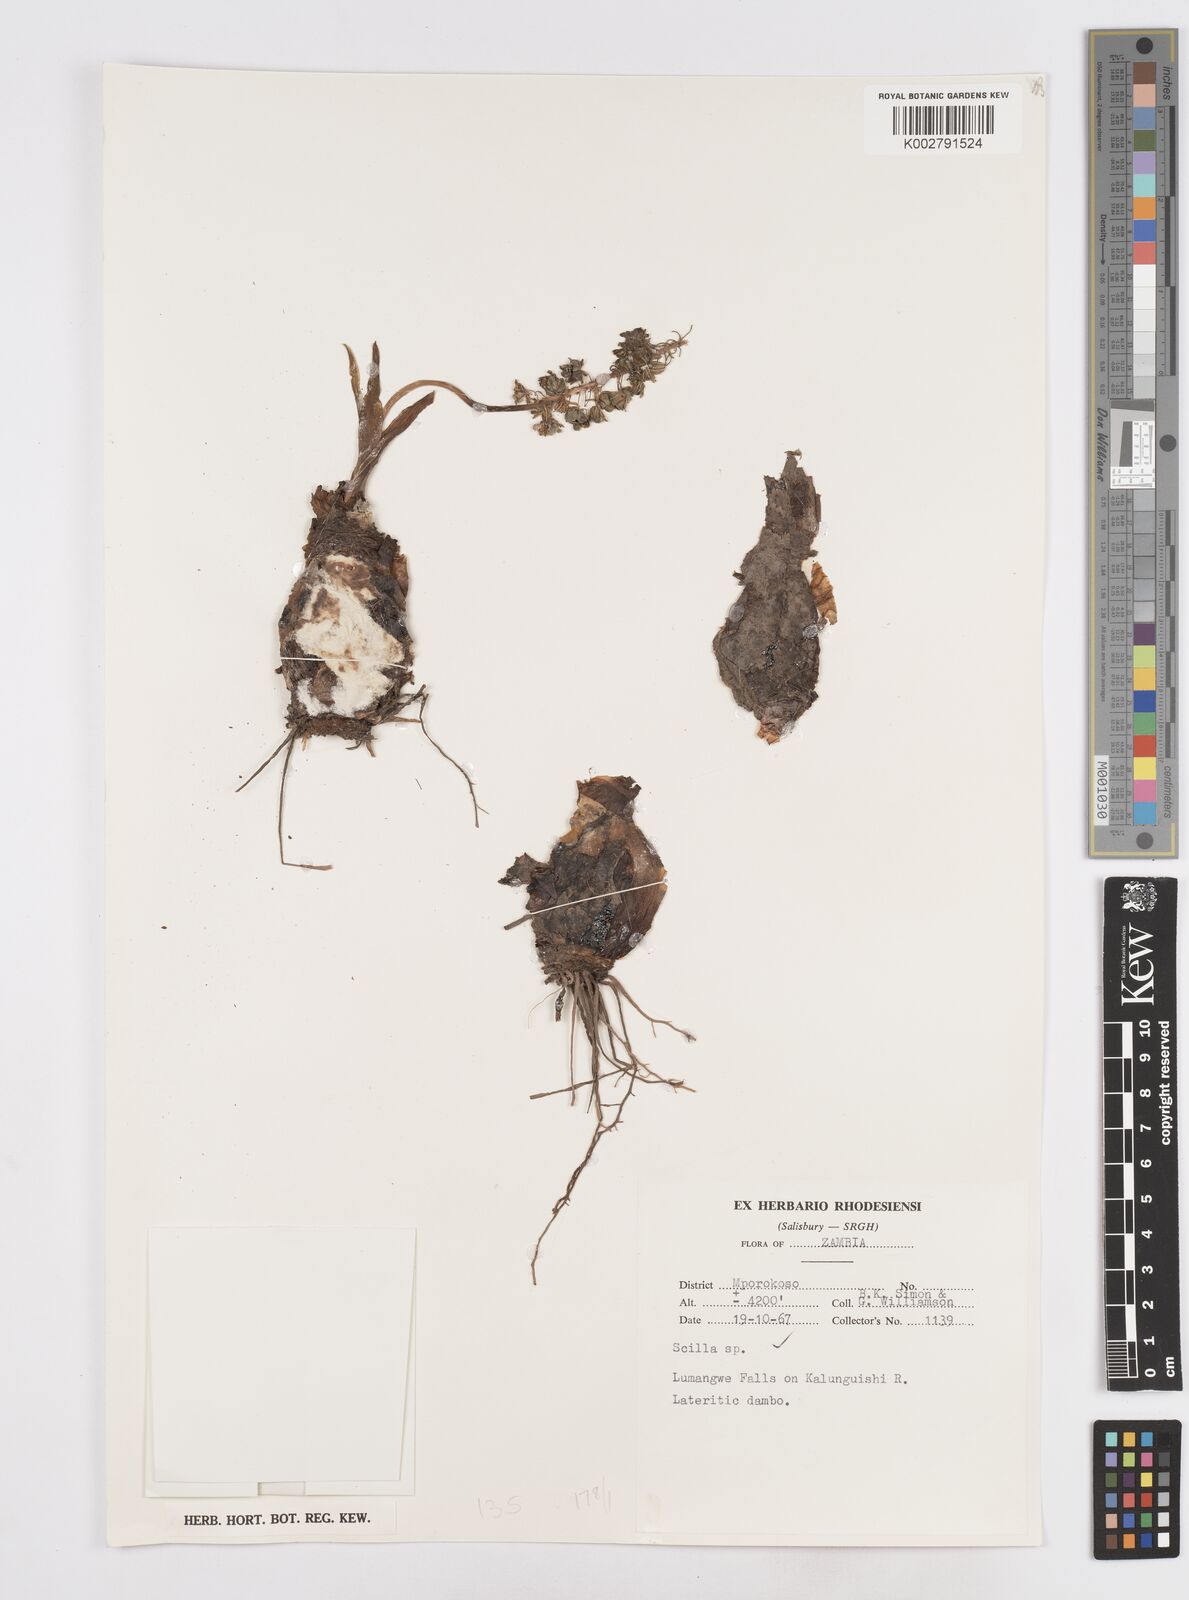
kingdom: Plantae
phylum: Tracheophyta
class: Liliopsida
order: Asparagales
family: Asparagaceae
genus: Scilla
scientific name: Scilla
